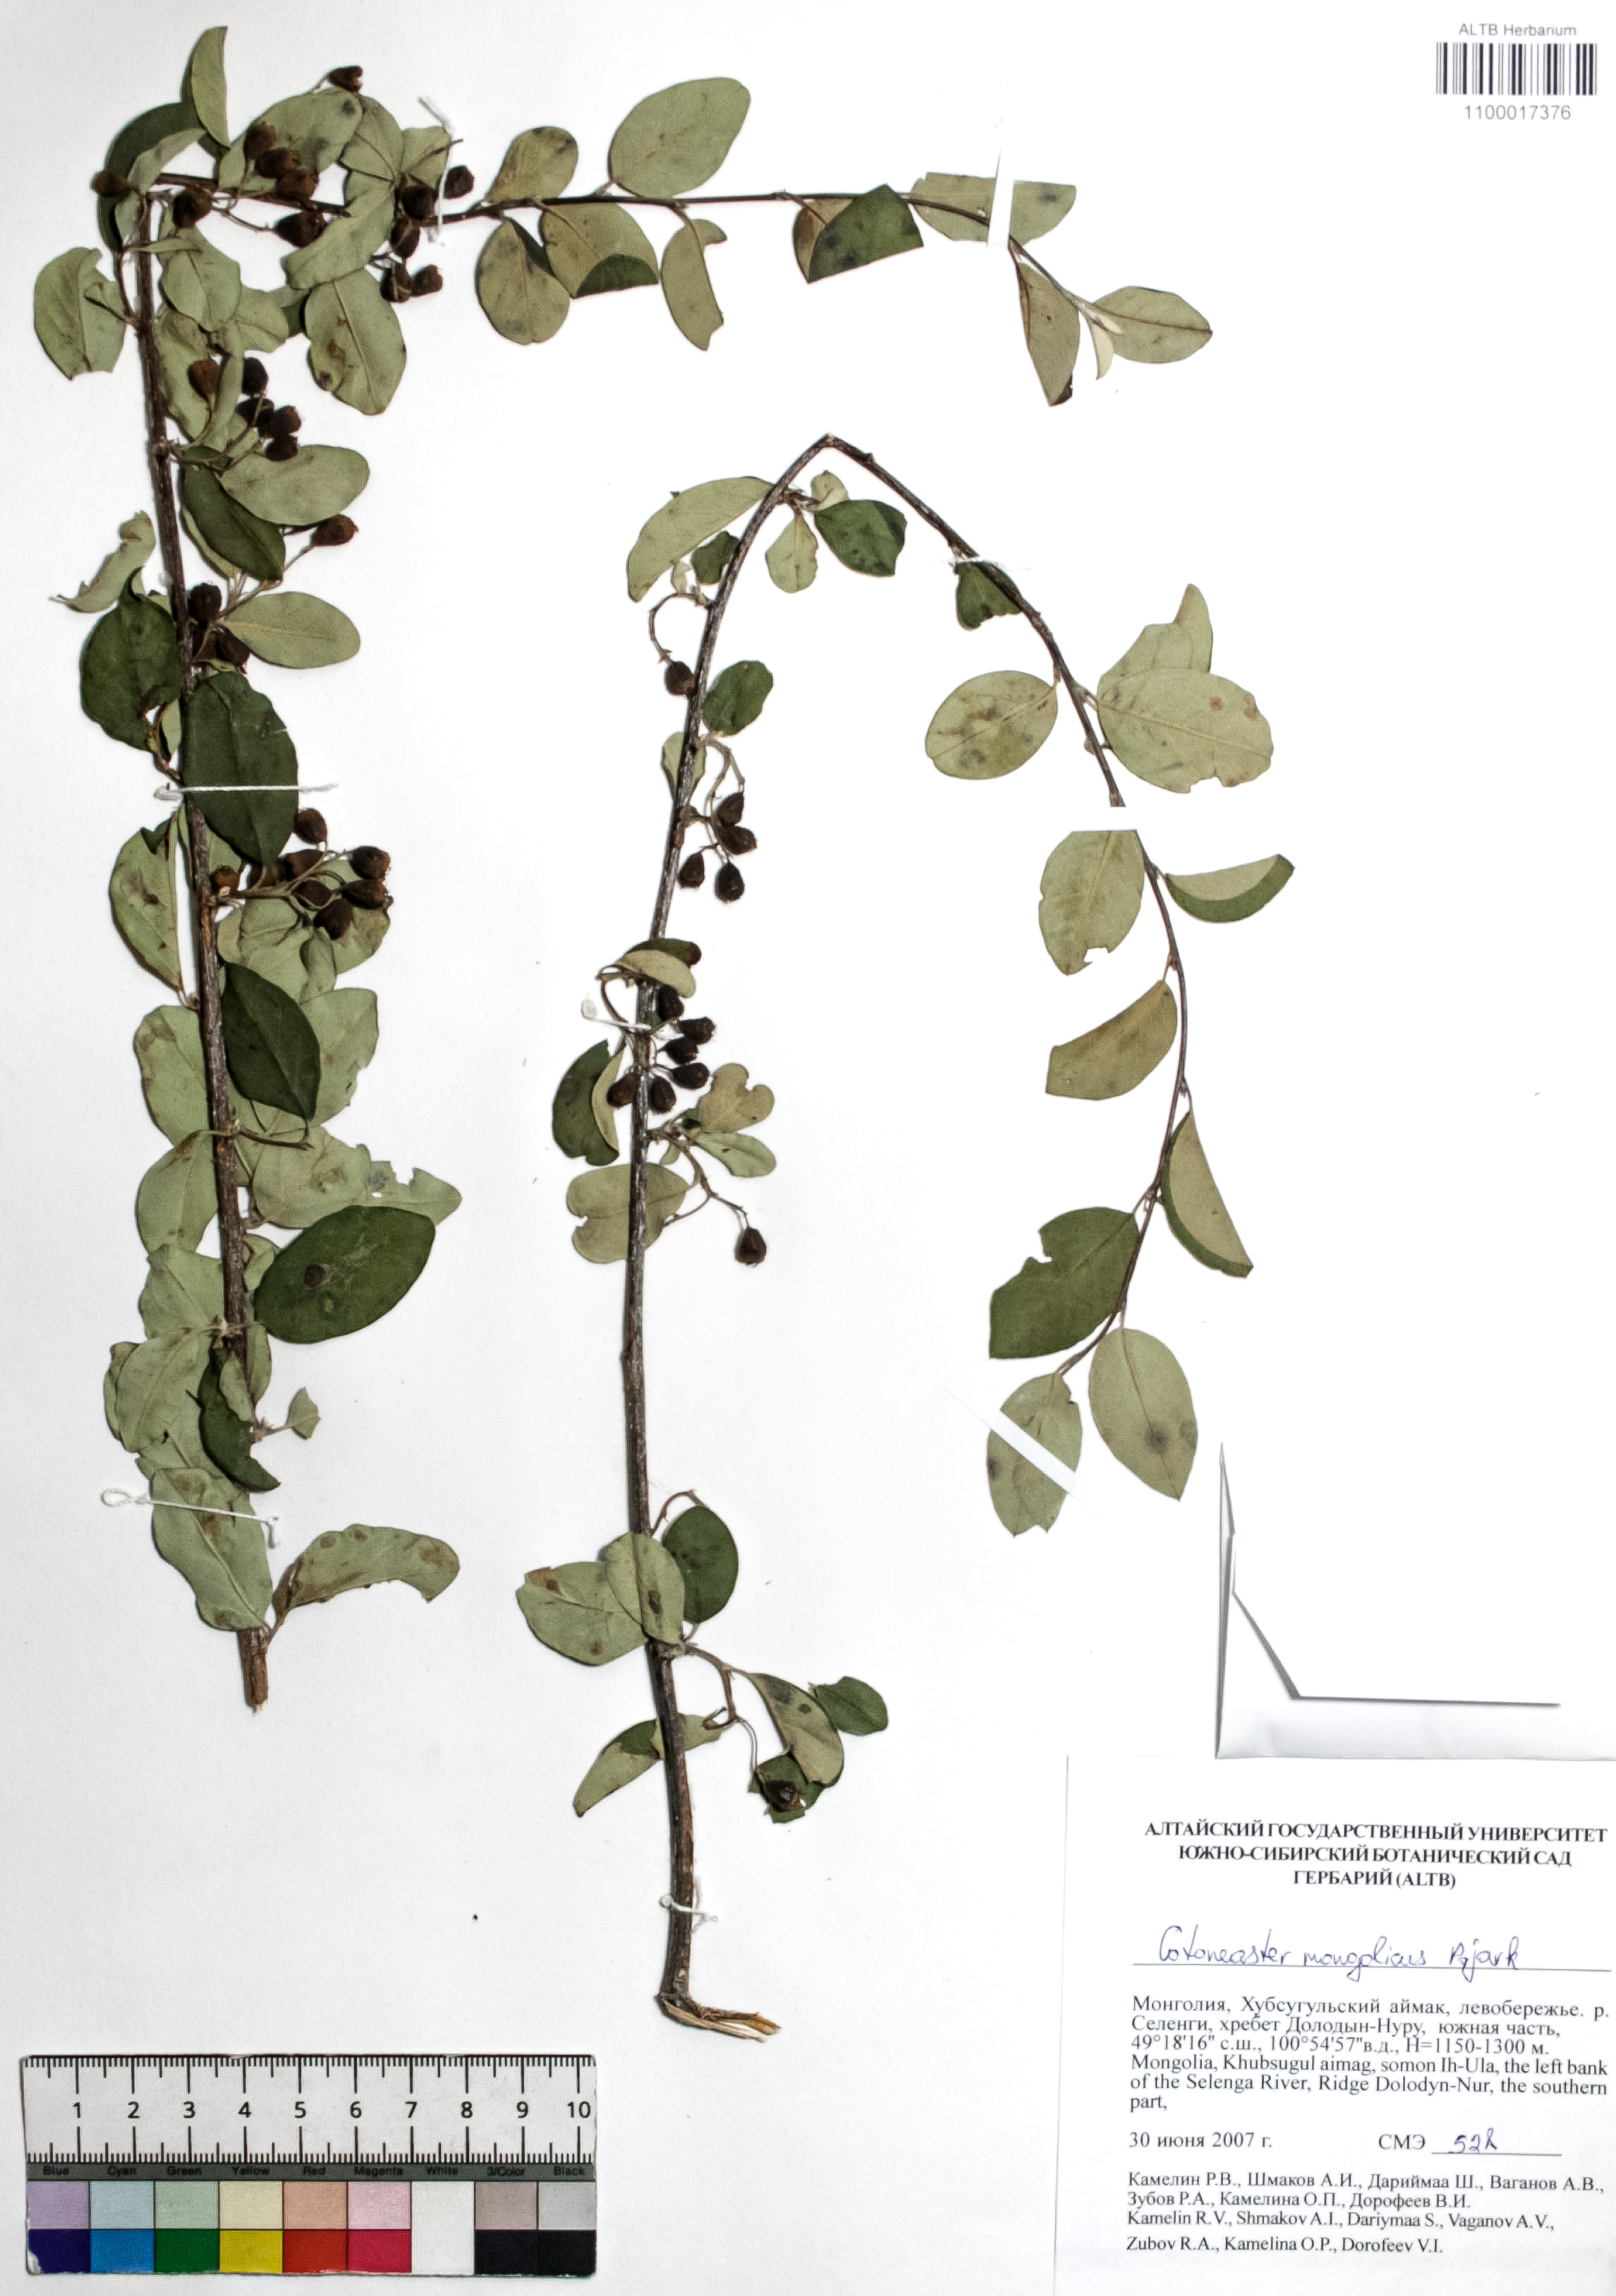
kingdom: Plantae
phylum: Tracheophyta
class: Magnoliopsida
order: Rosales
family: Rosaceae
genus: Cotoneaster
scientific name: Cotoneaster mongolicus
